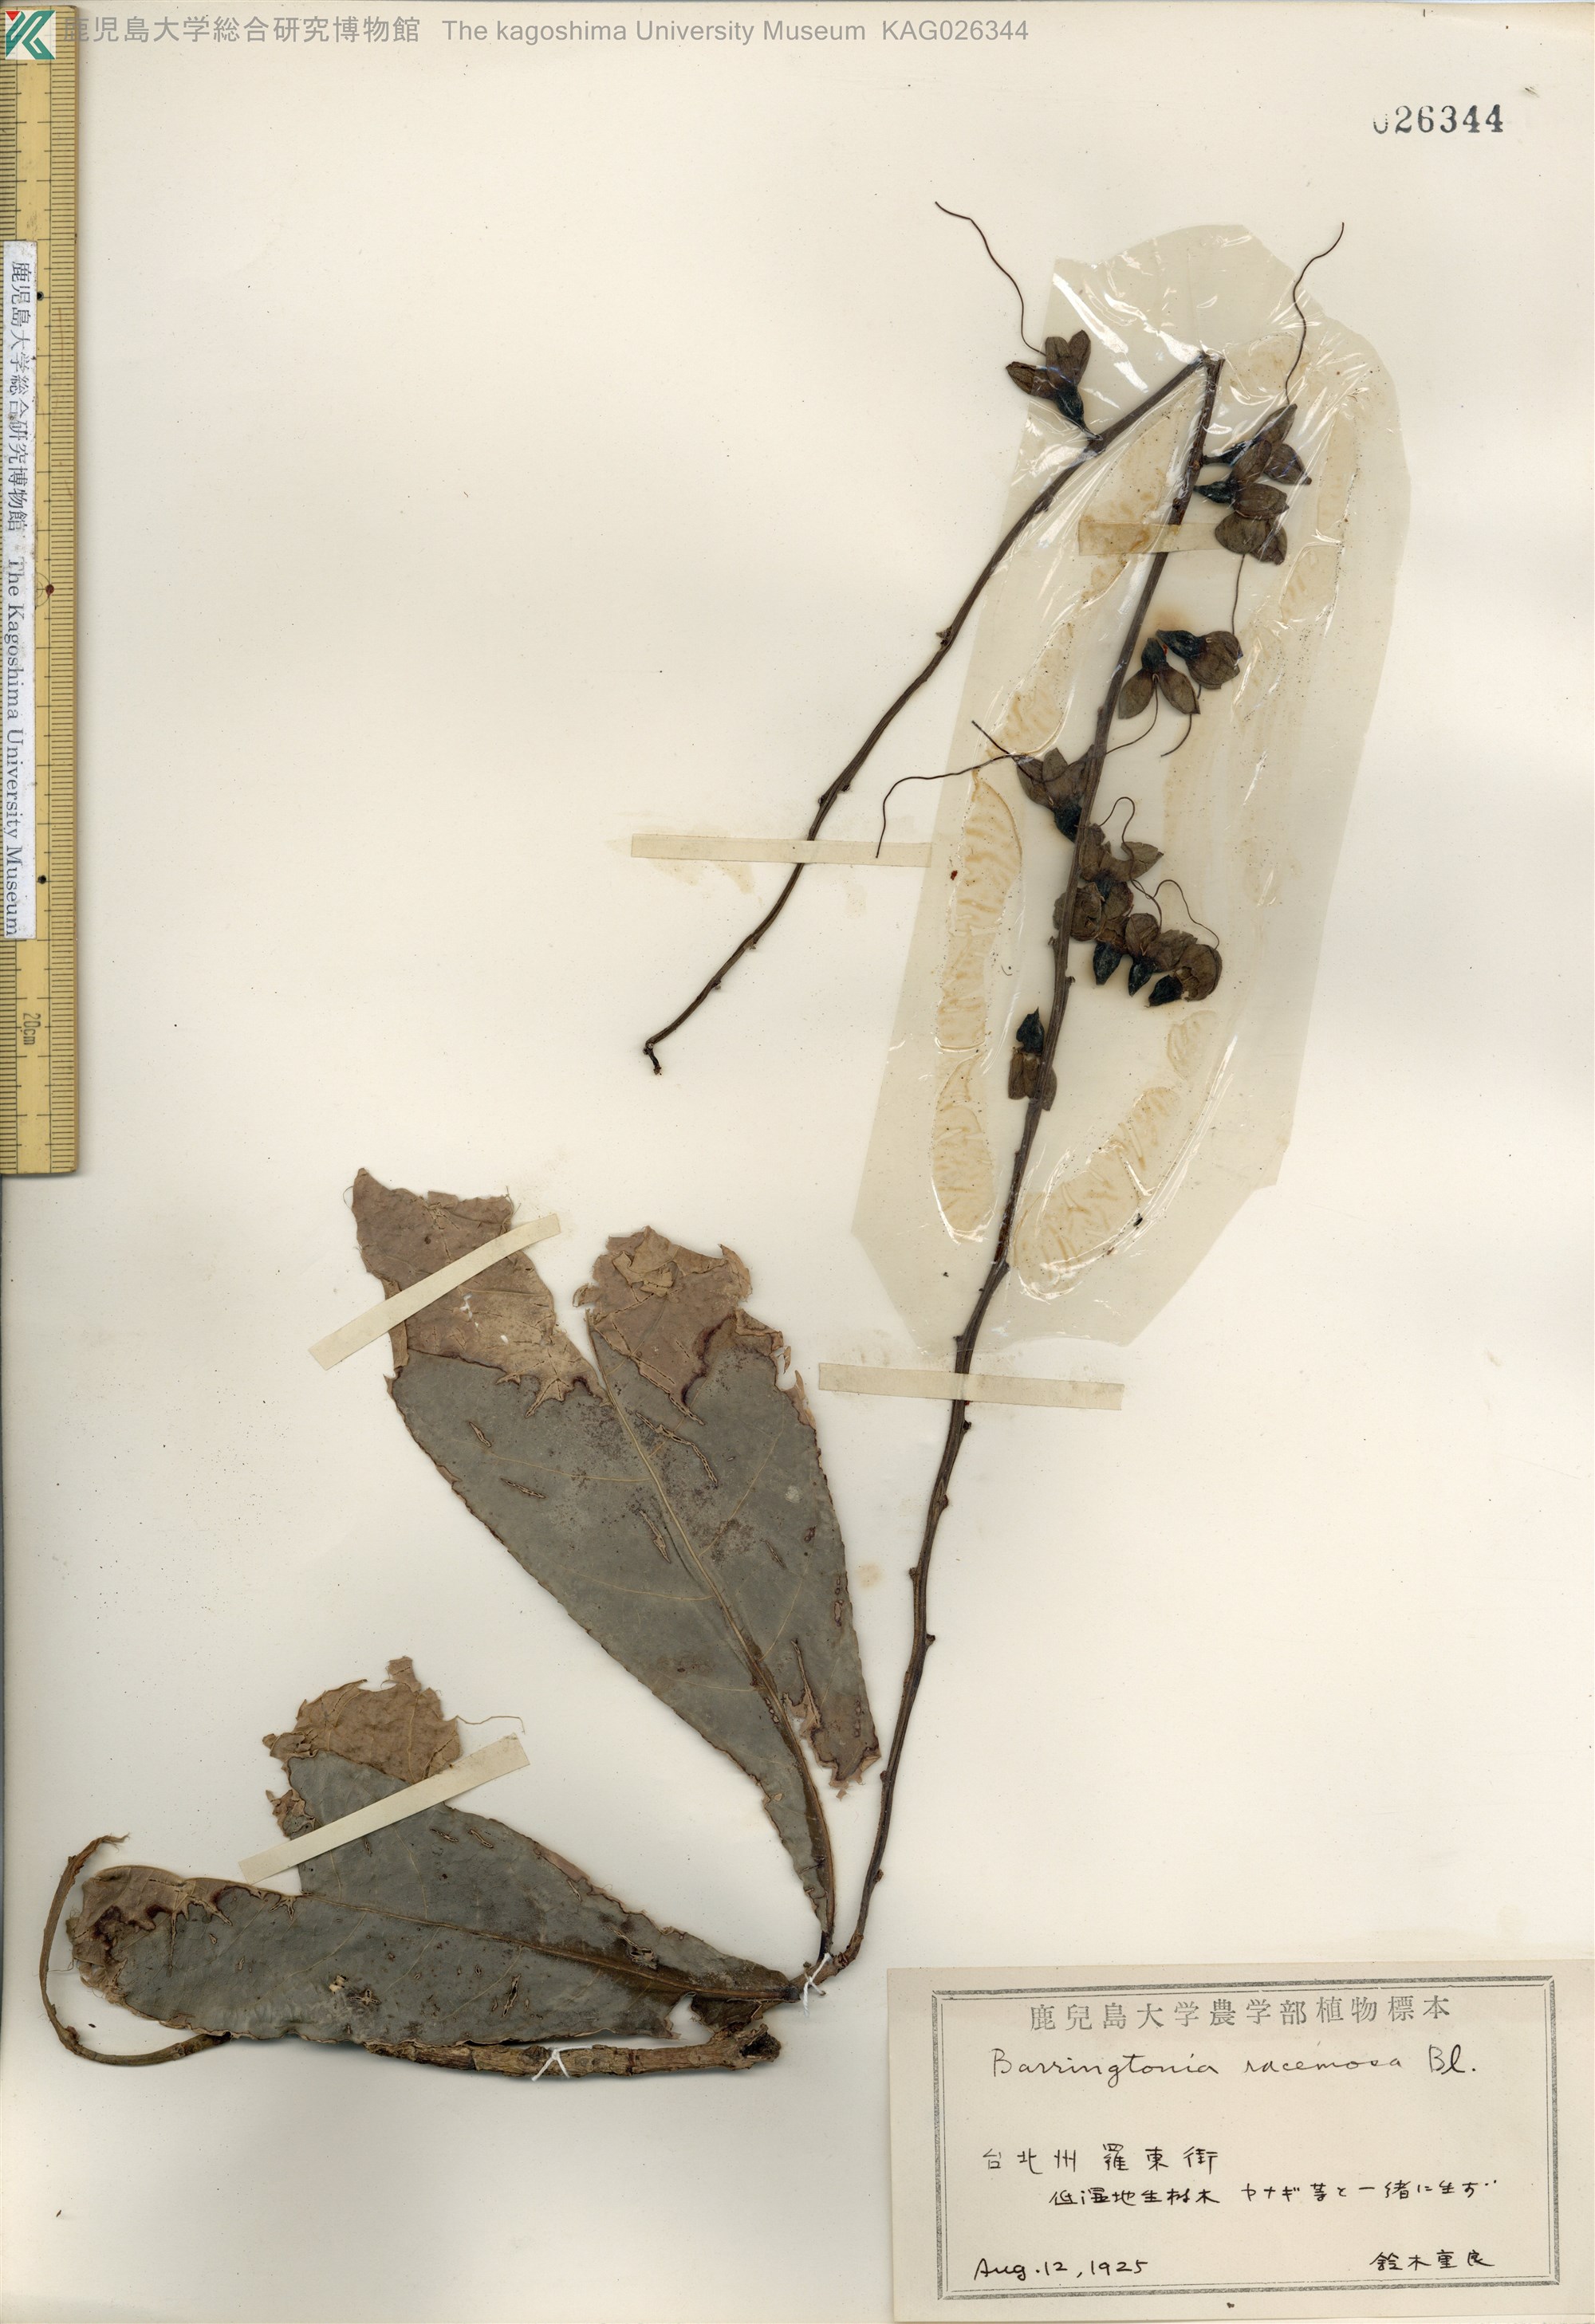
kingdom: Plantae
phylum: Tracheophyta
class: Magnoliopsida
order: Ericales
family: Lecythidaceae
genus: Barringtonia
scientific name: Barringtonia racemosa
